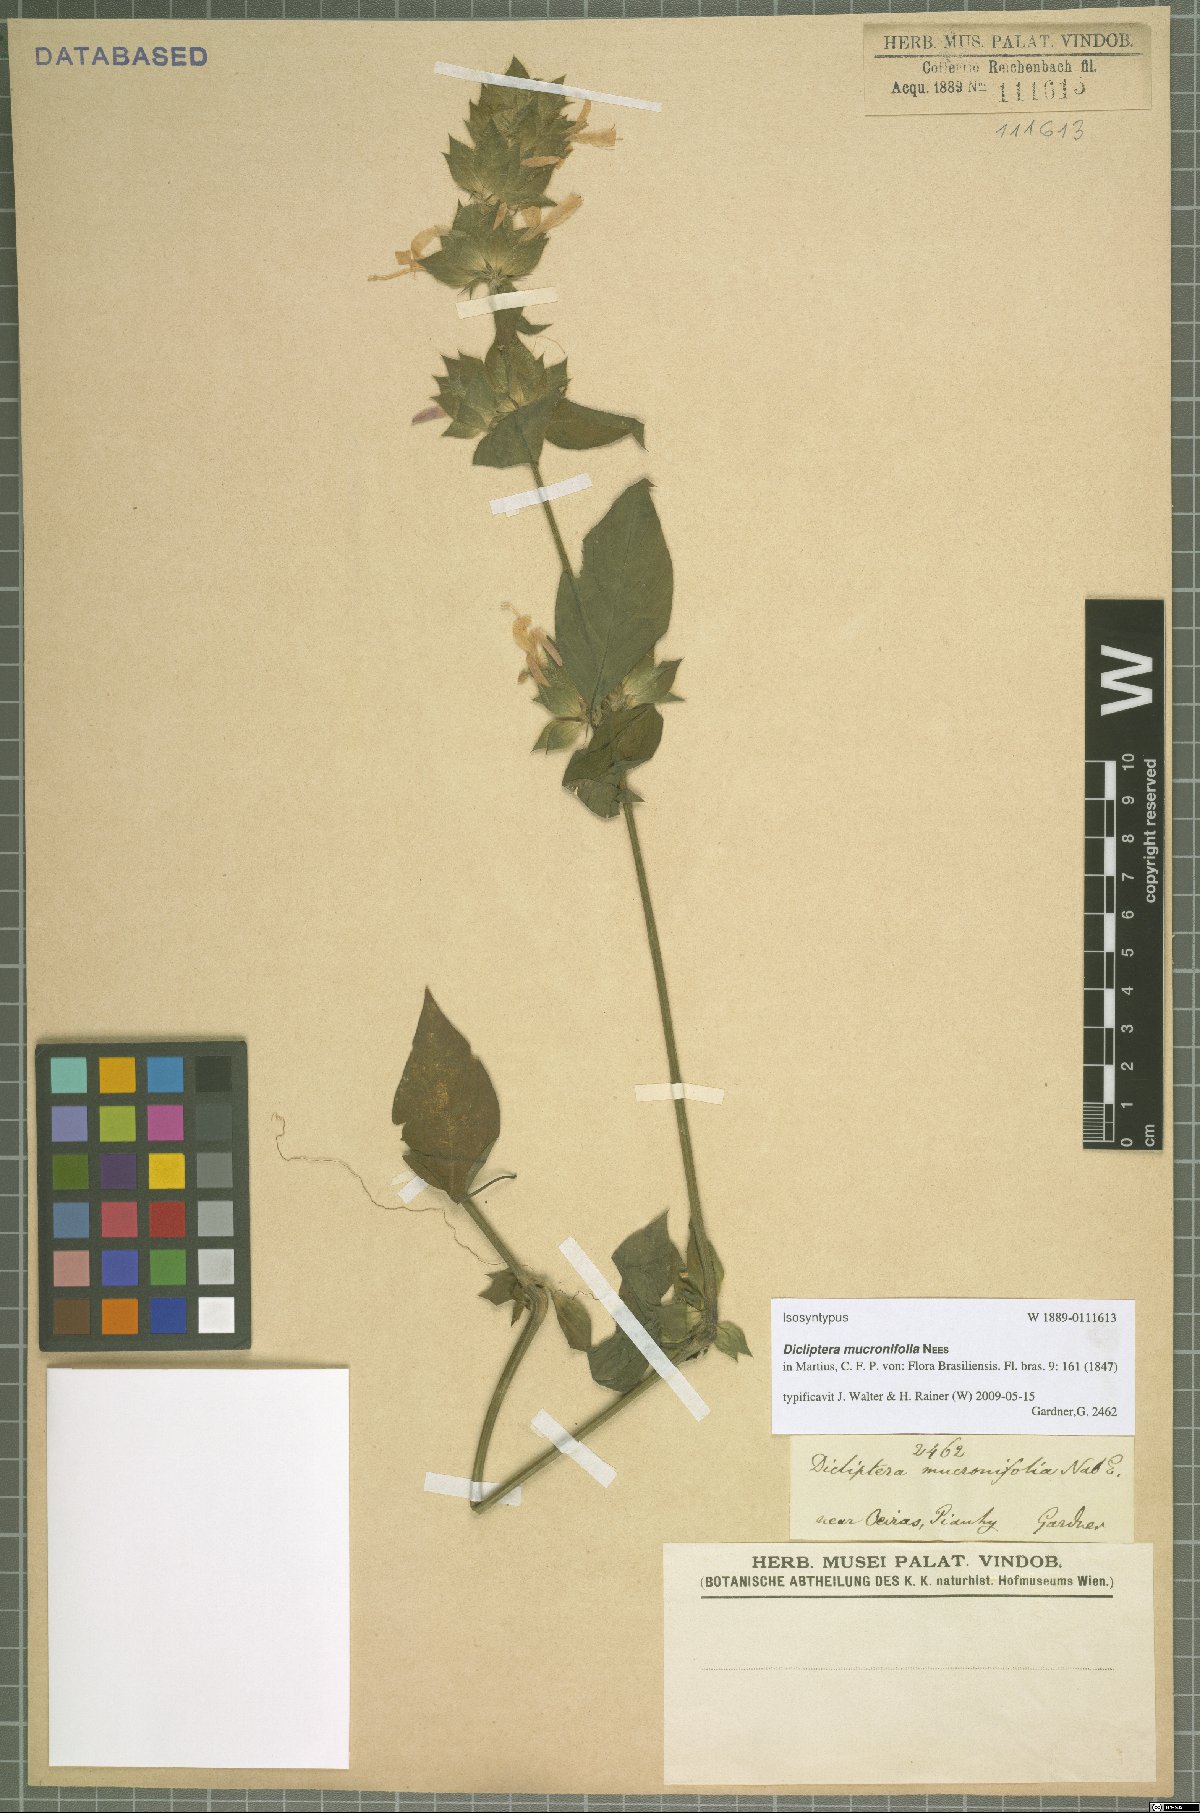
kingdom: Plantae
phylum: Tracheophyta
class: Magnoliopsida
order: Lamiales
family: Acanthaceae
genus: Dicliptera
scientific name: Dicliptera mucronifolia
